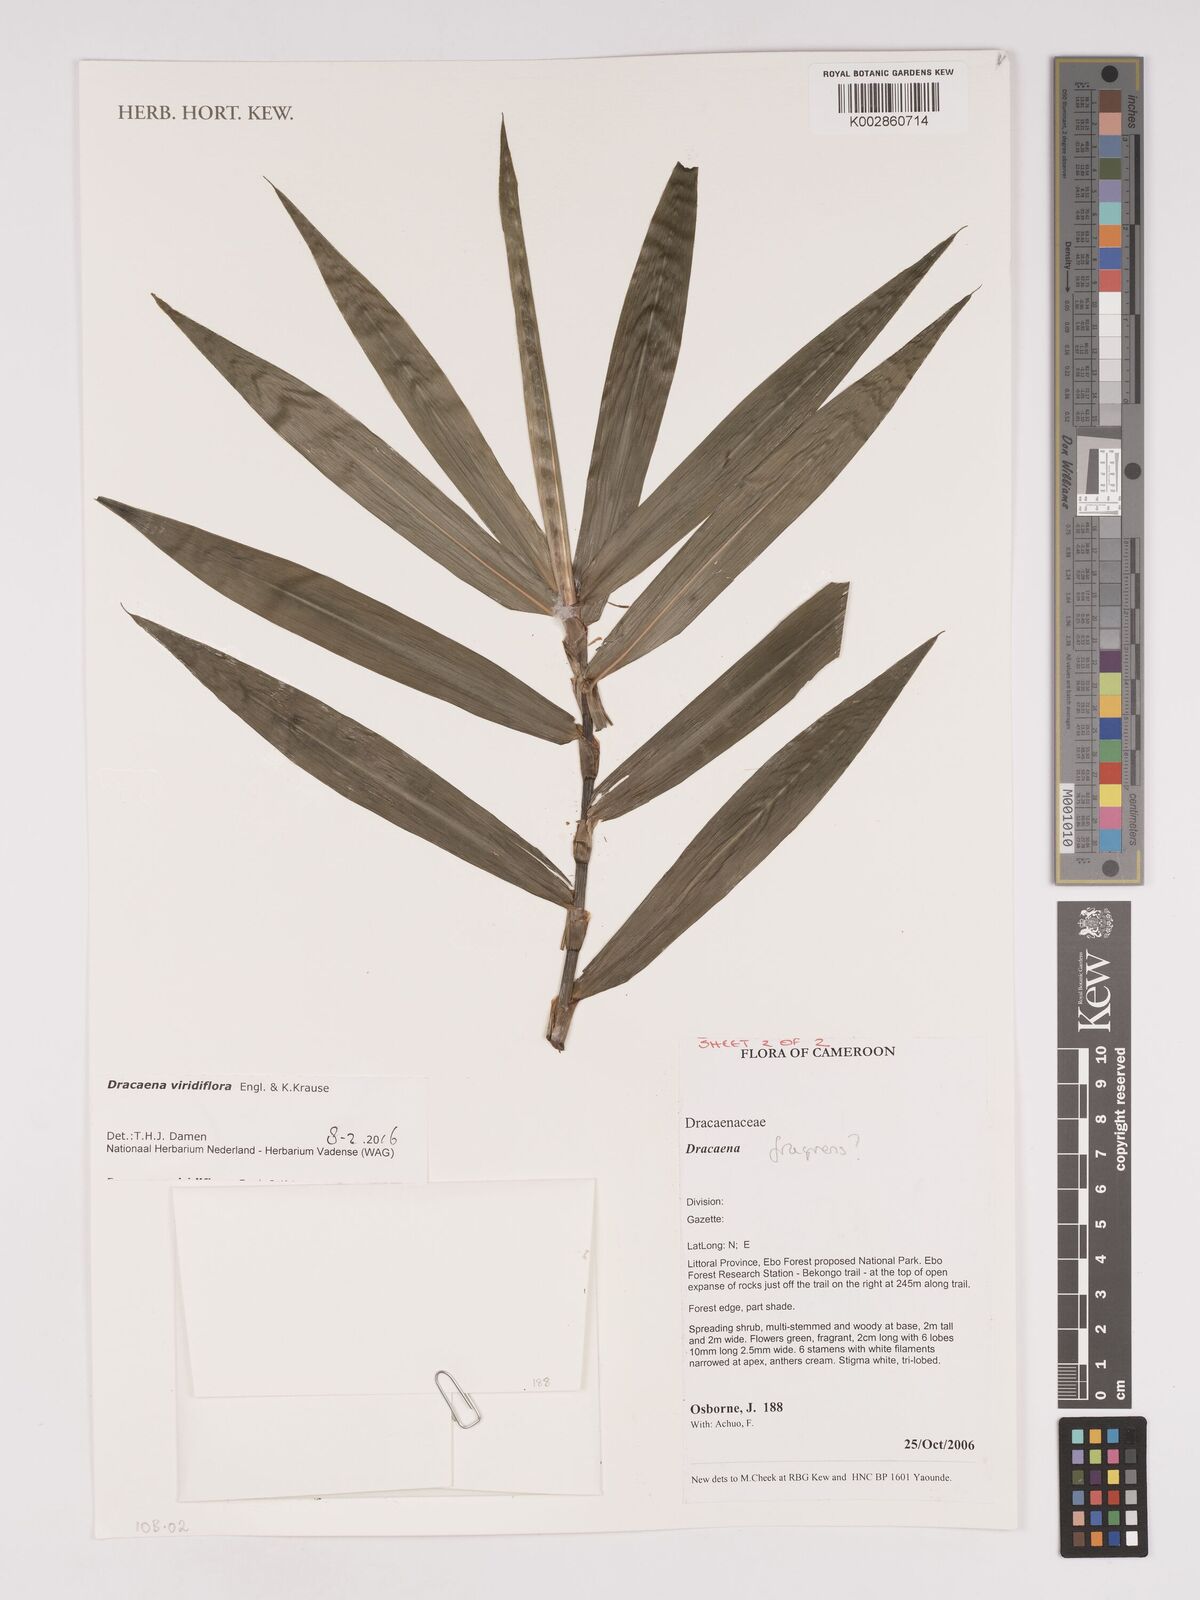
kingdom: Plantae
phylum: Tracheophyta
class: Liliopsida
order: Asparagales
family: Asparagaceae
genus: Dracaena
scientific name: Dracaena viridiflora
